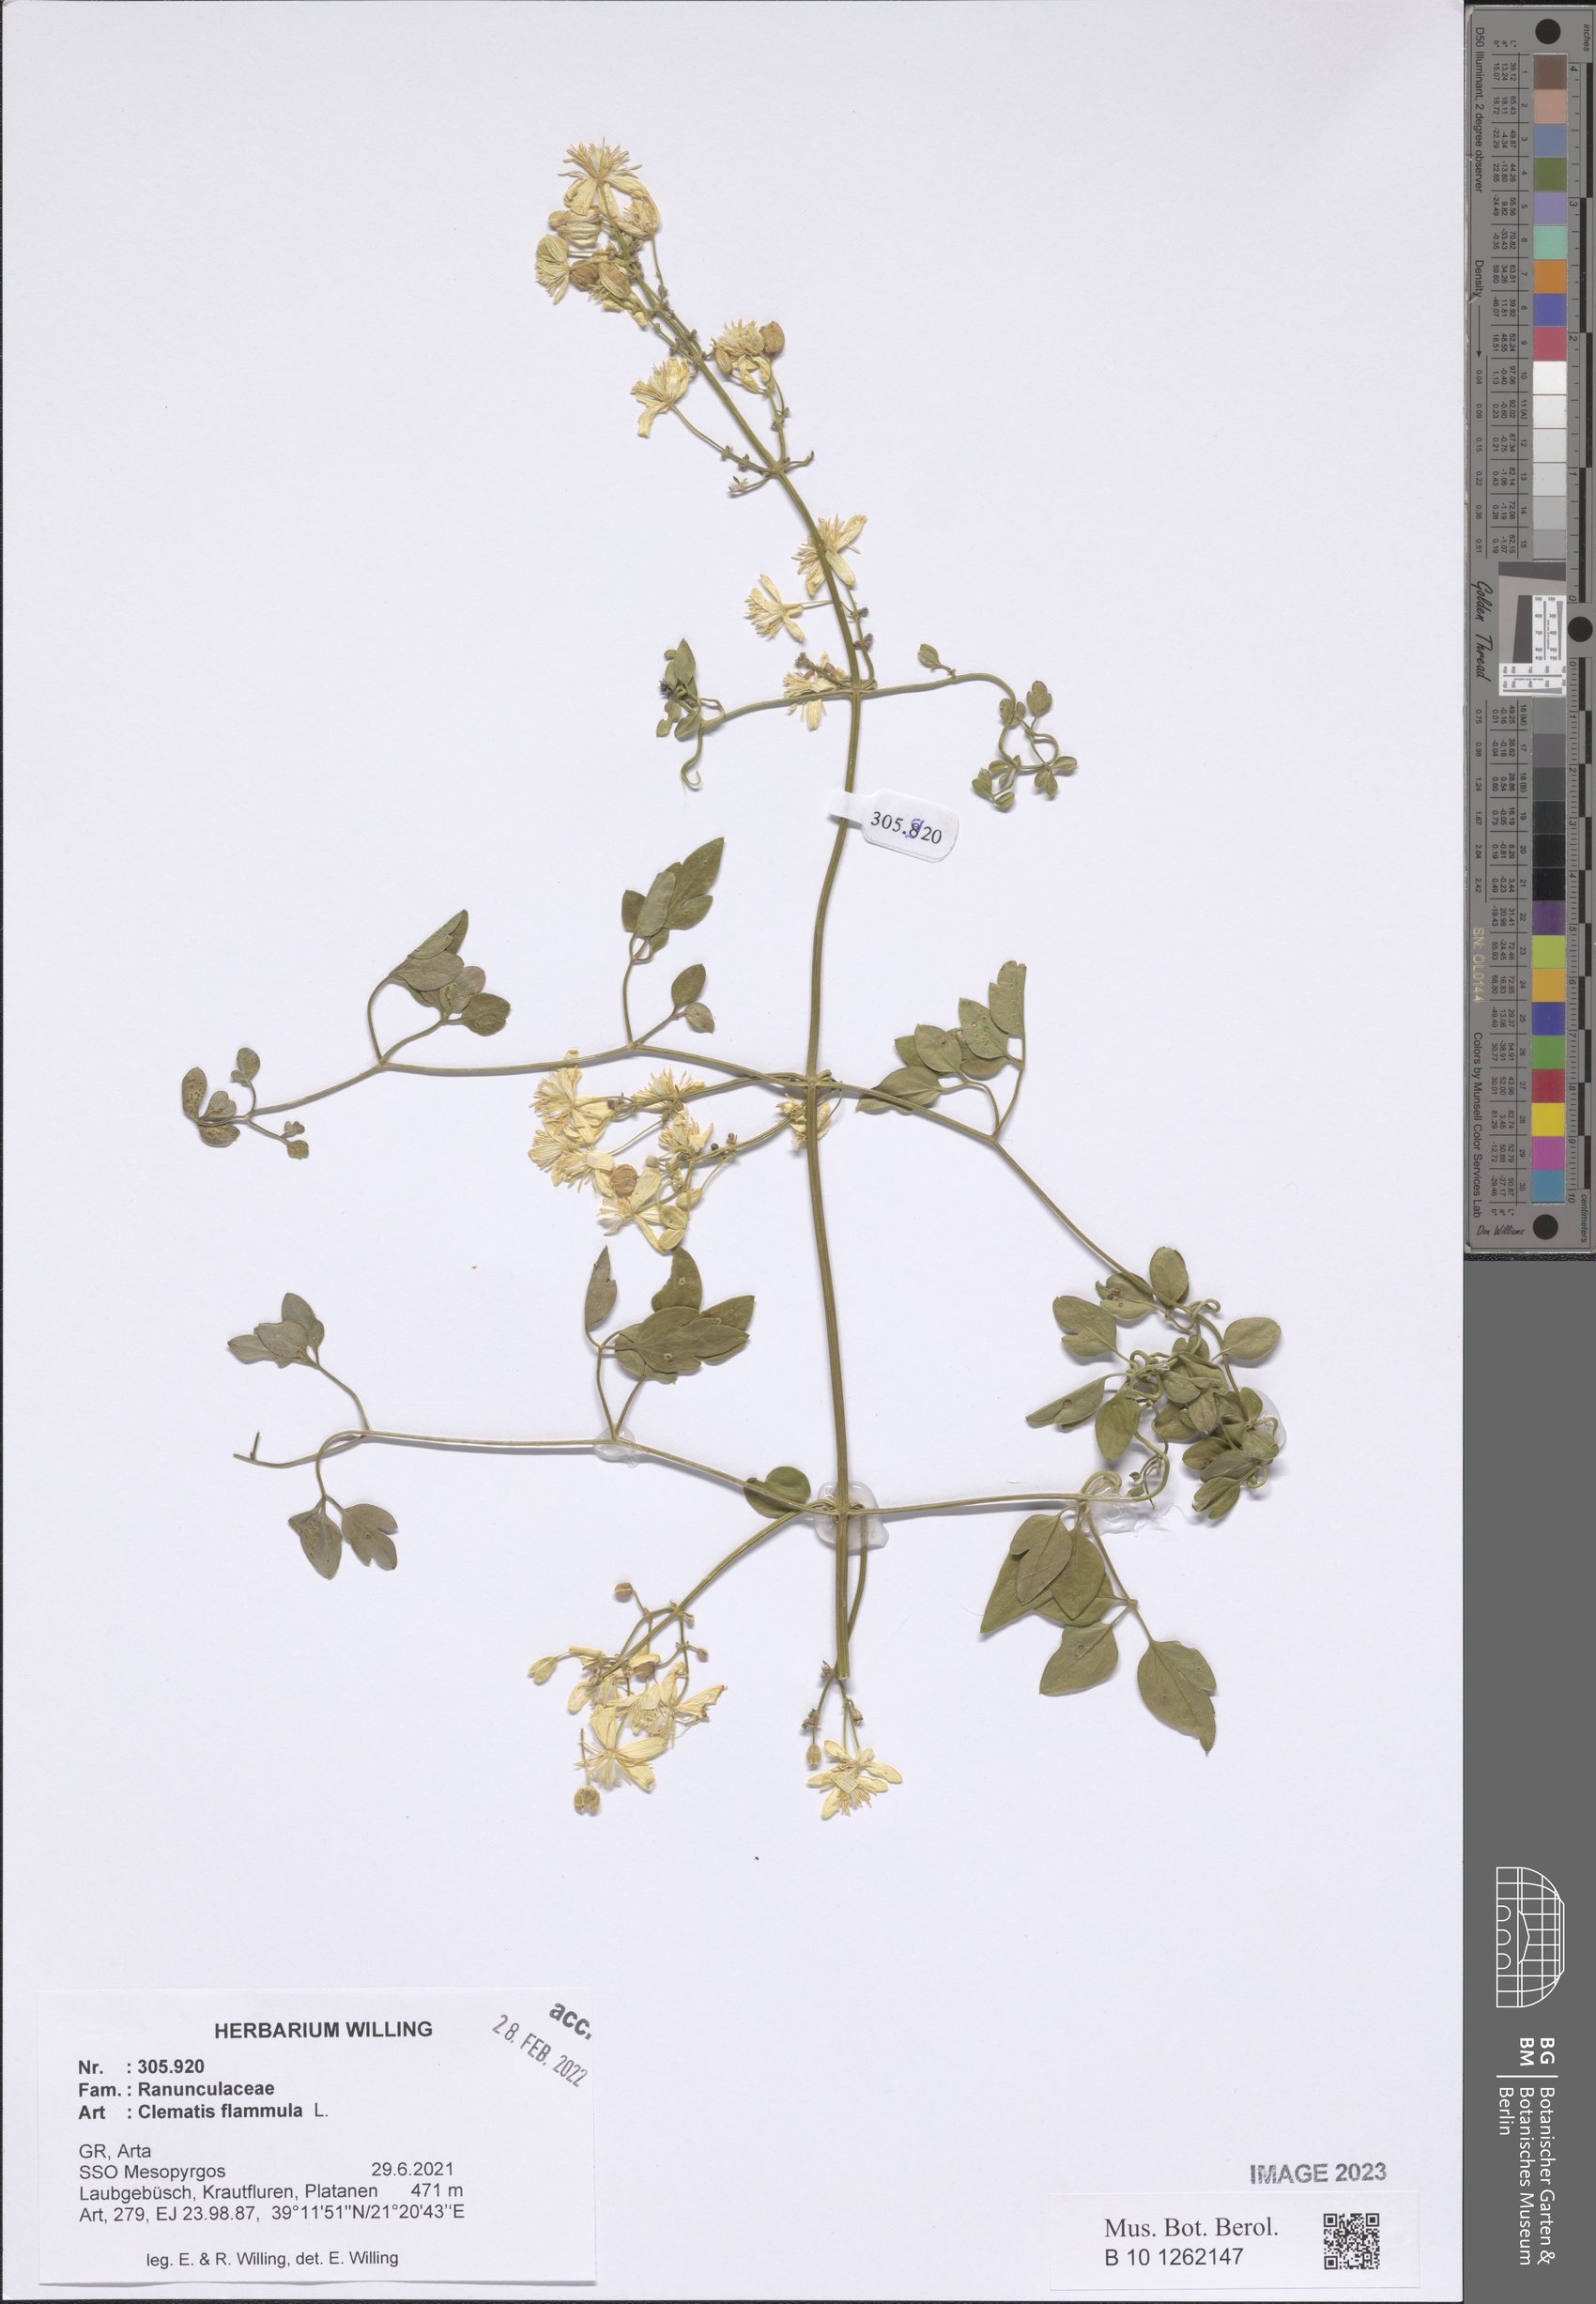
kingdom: Plantae
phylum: Tracheophyta
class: Magnoliopsida
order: Ranunculales
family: Ranunculaceae
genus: Clematis
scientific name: Clematis flammula
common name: Virgin's-bower
